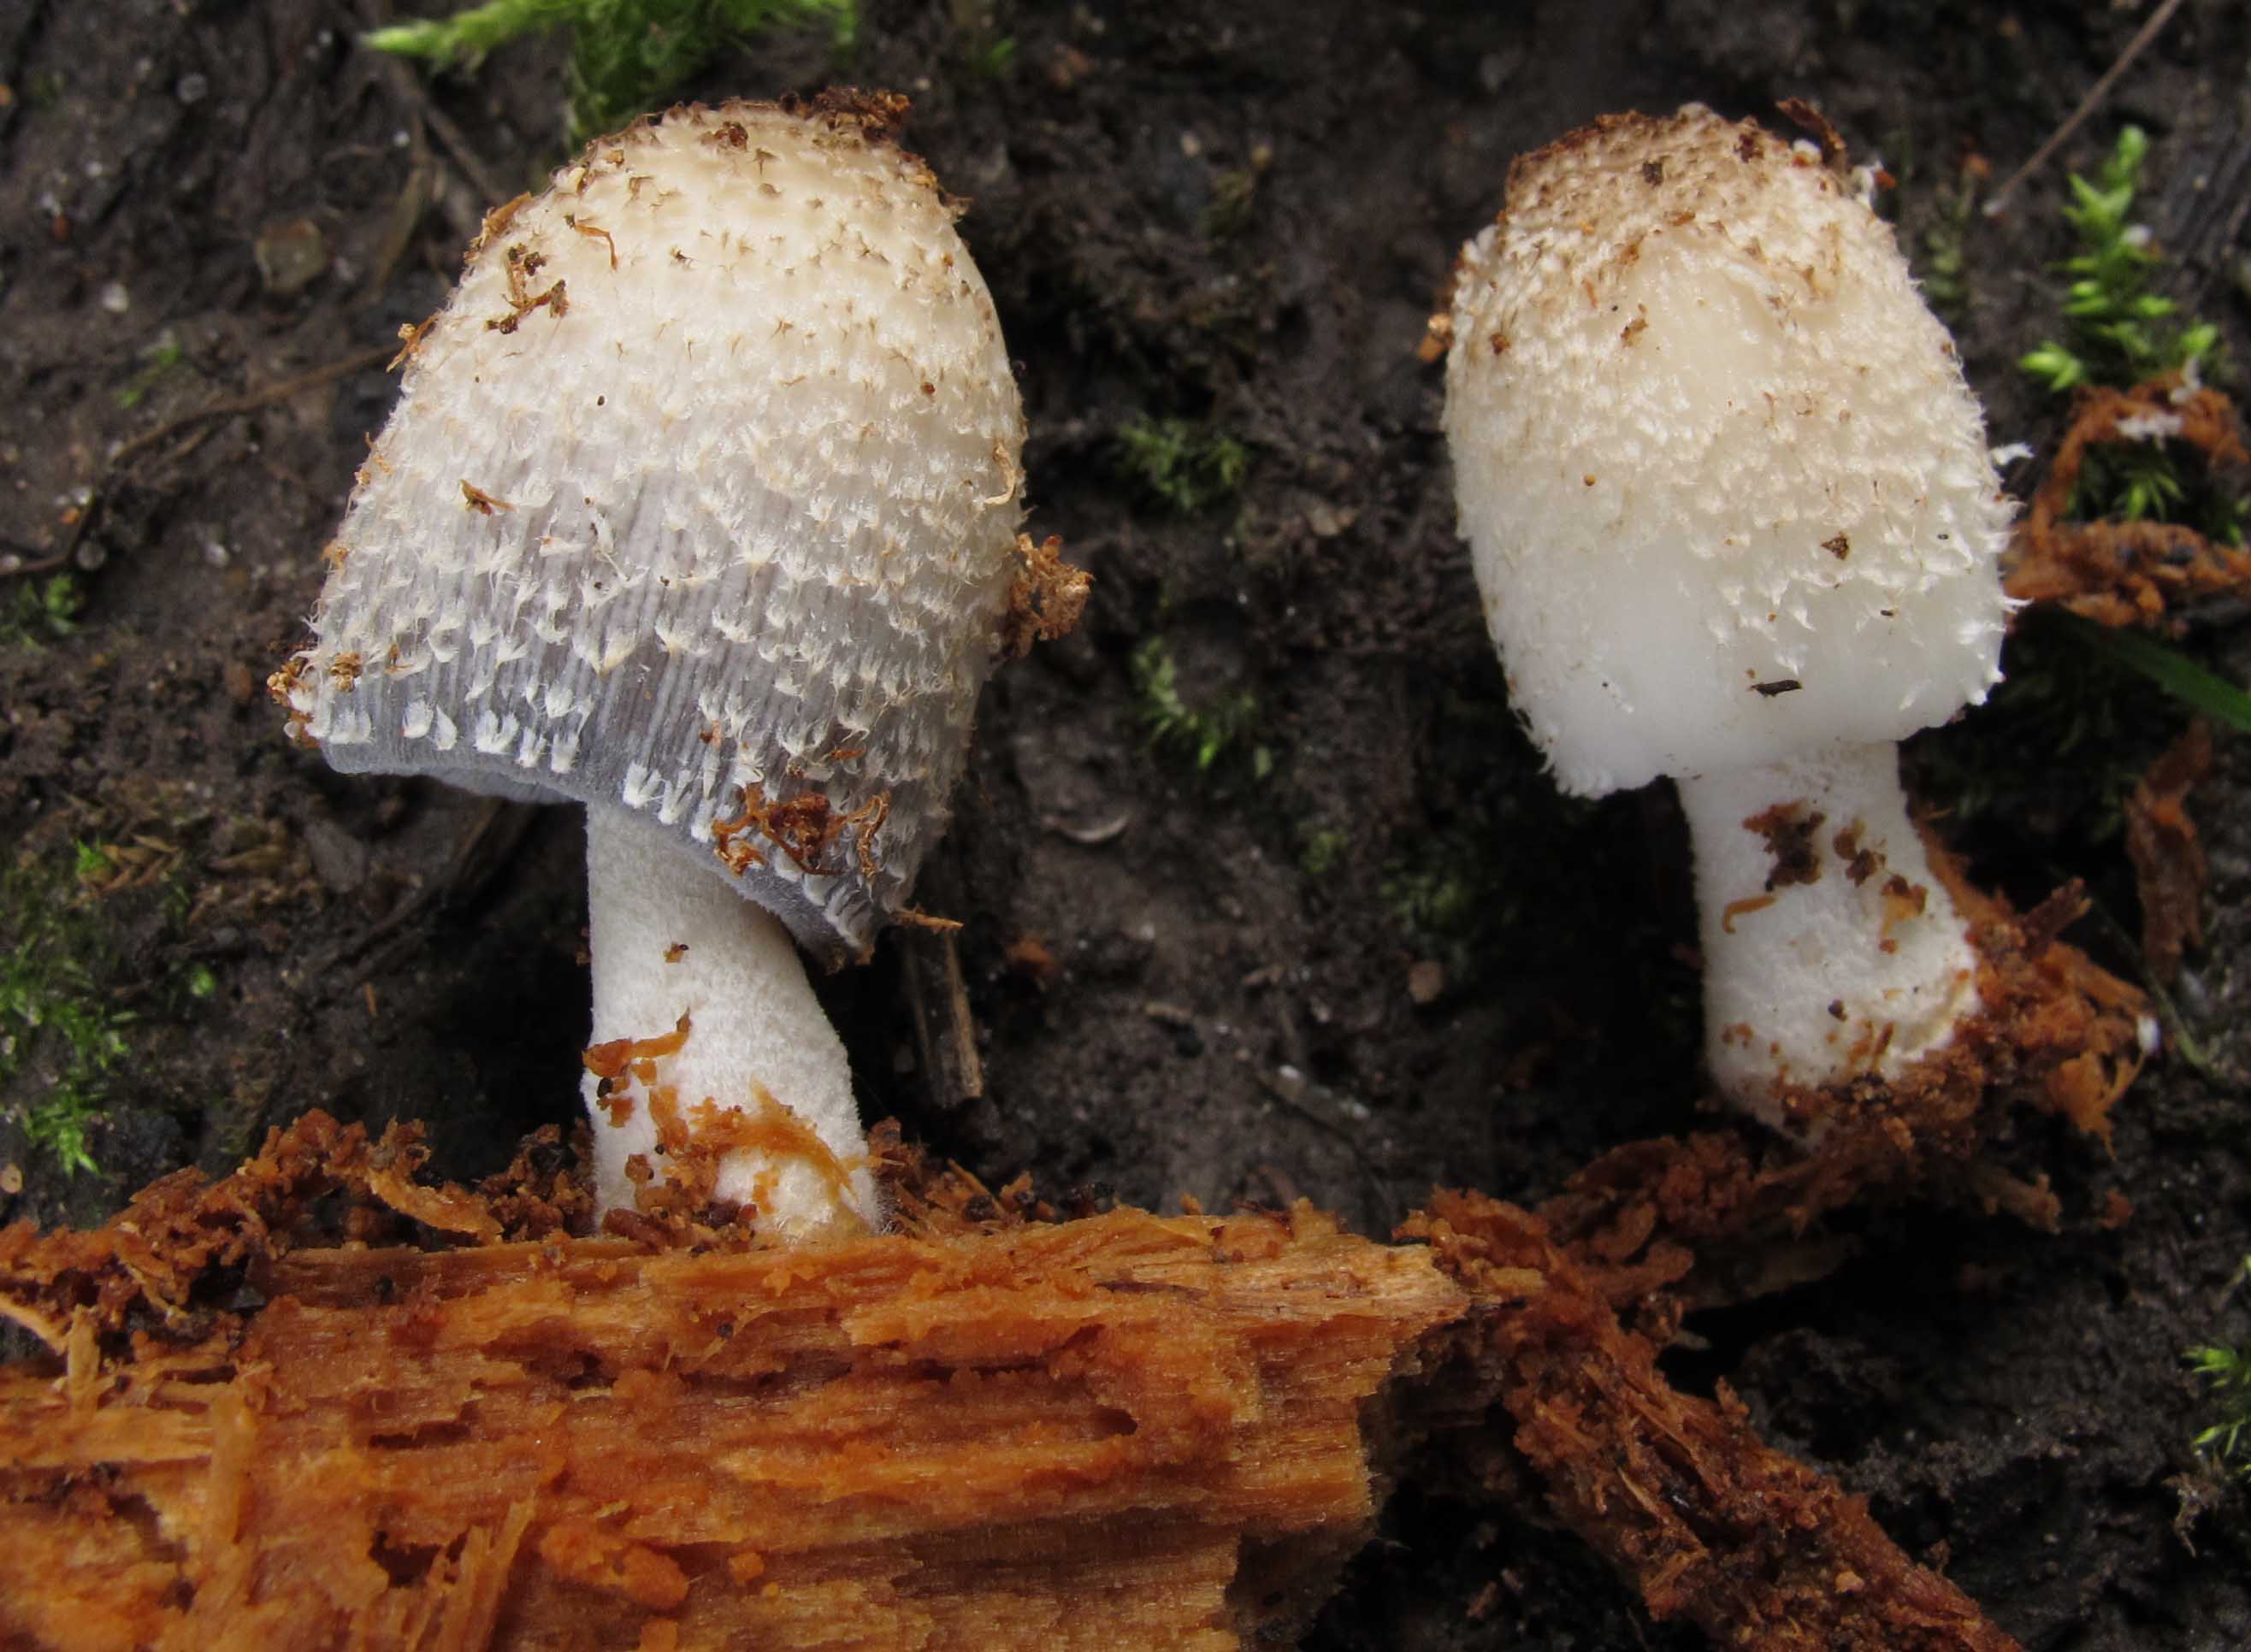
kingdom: Fungi
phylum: Basidiomycota
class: Agaricomycetes
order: Agaricales
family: Psathyrellaceae
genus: Coprinopsis
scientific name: Coprinopsis mitrispora
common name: hul-blækhat
